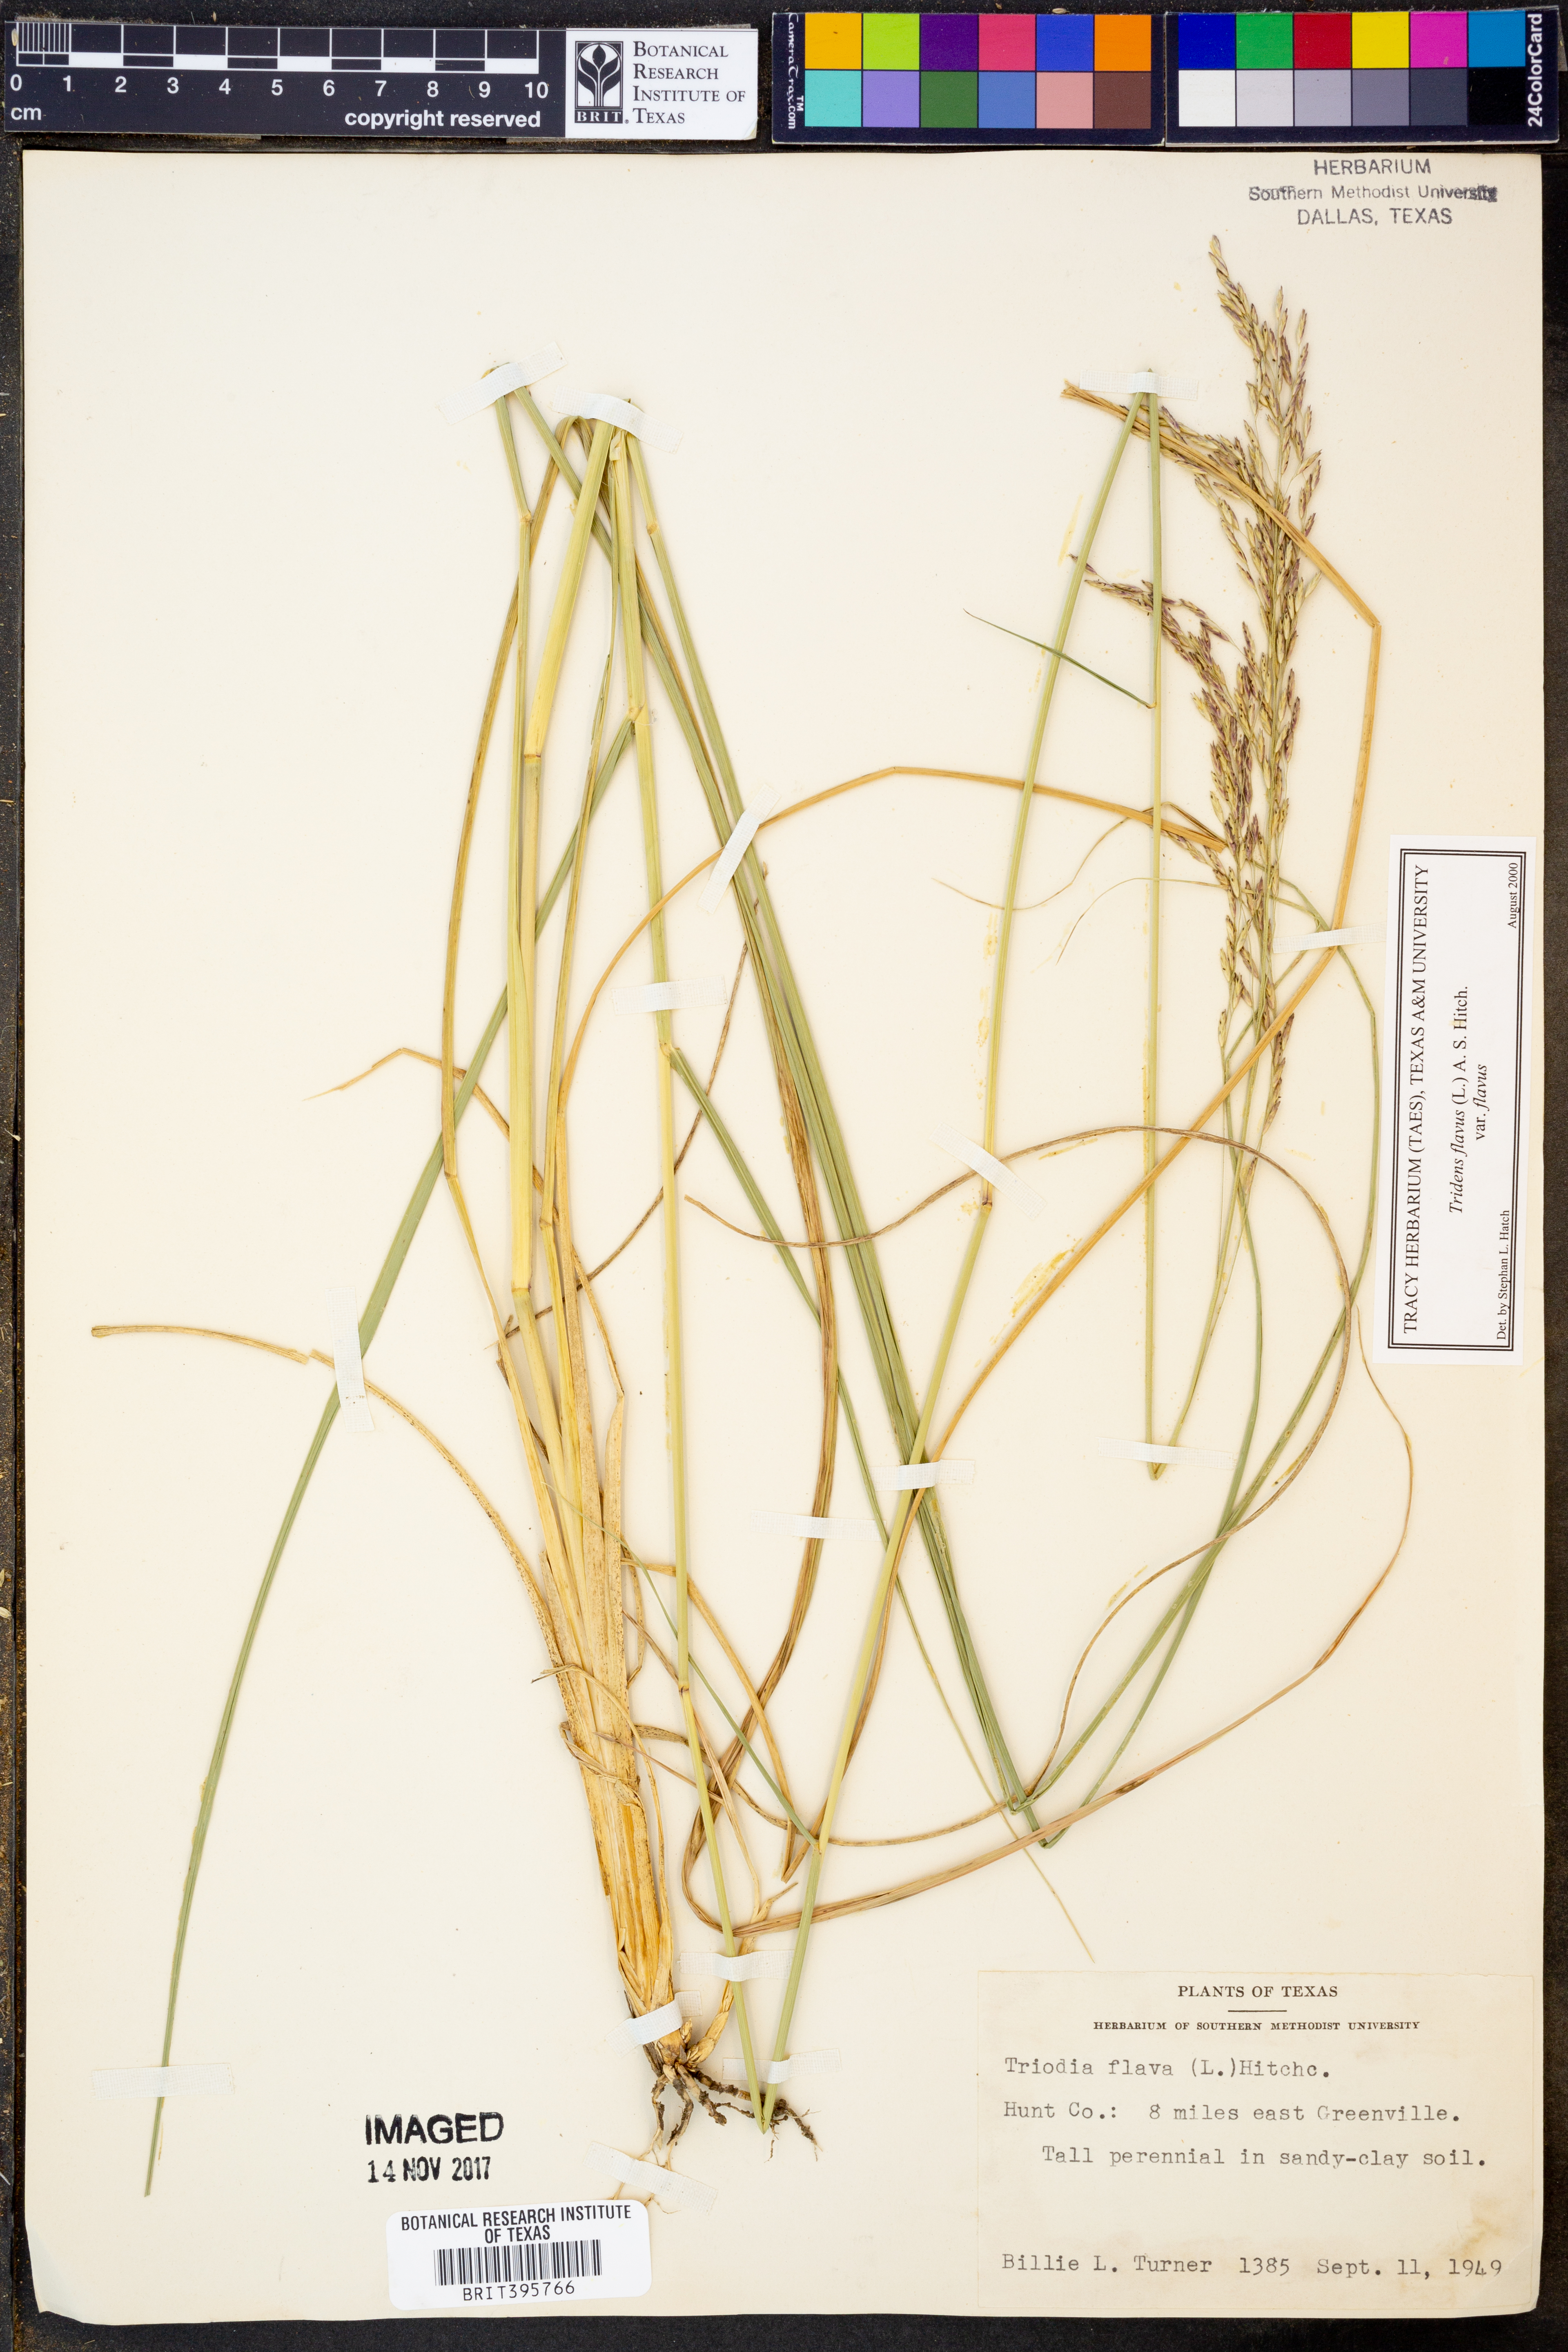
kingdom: Plantae
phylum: Tracheophyta
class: Liliopsida
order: Poales
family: Poaceae
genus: Tridens
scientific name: Tridens flavus
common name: Purpletop
